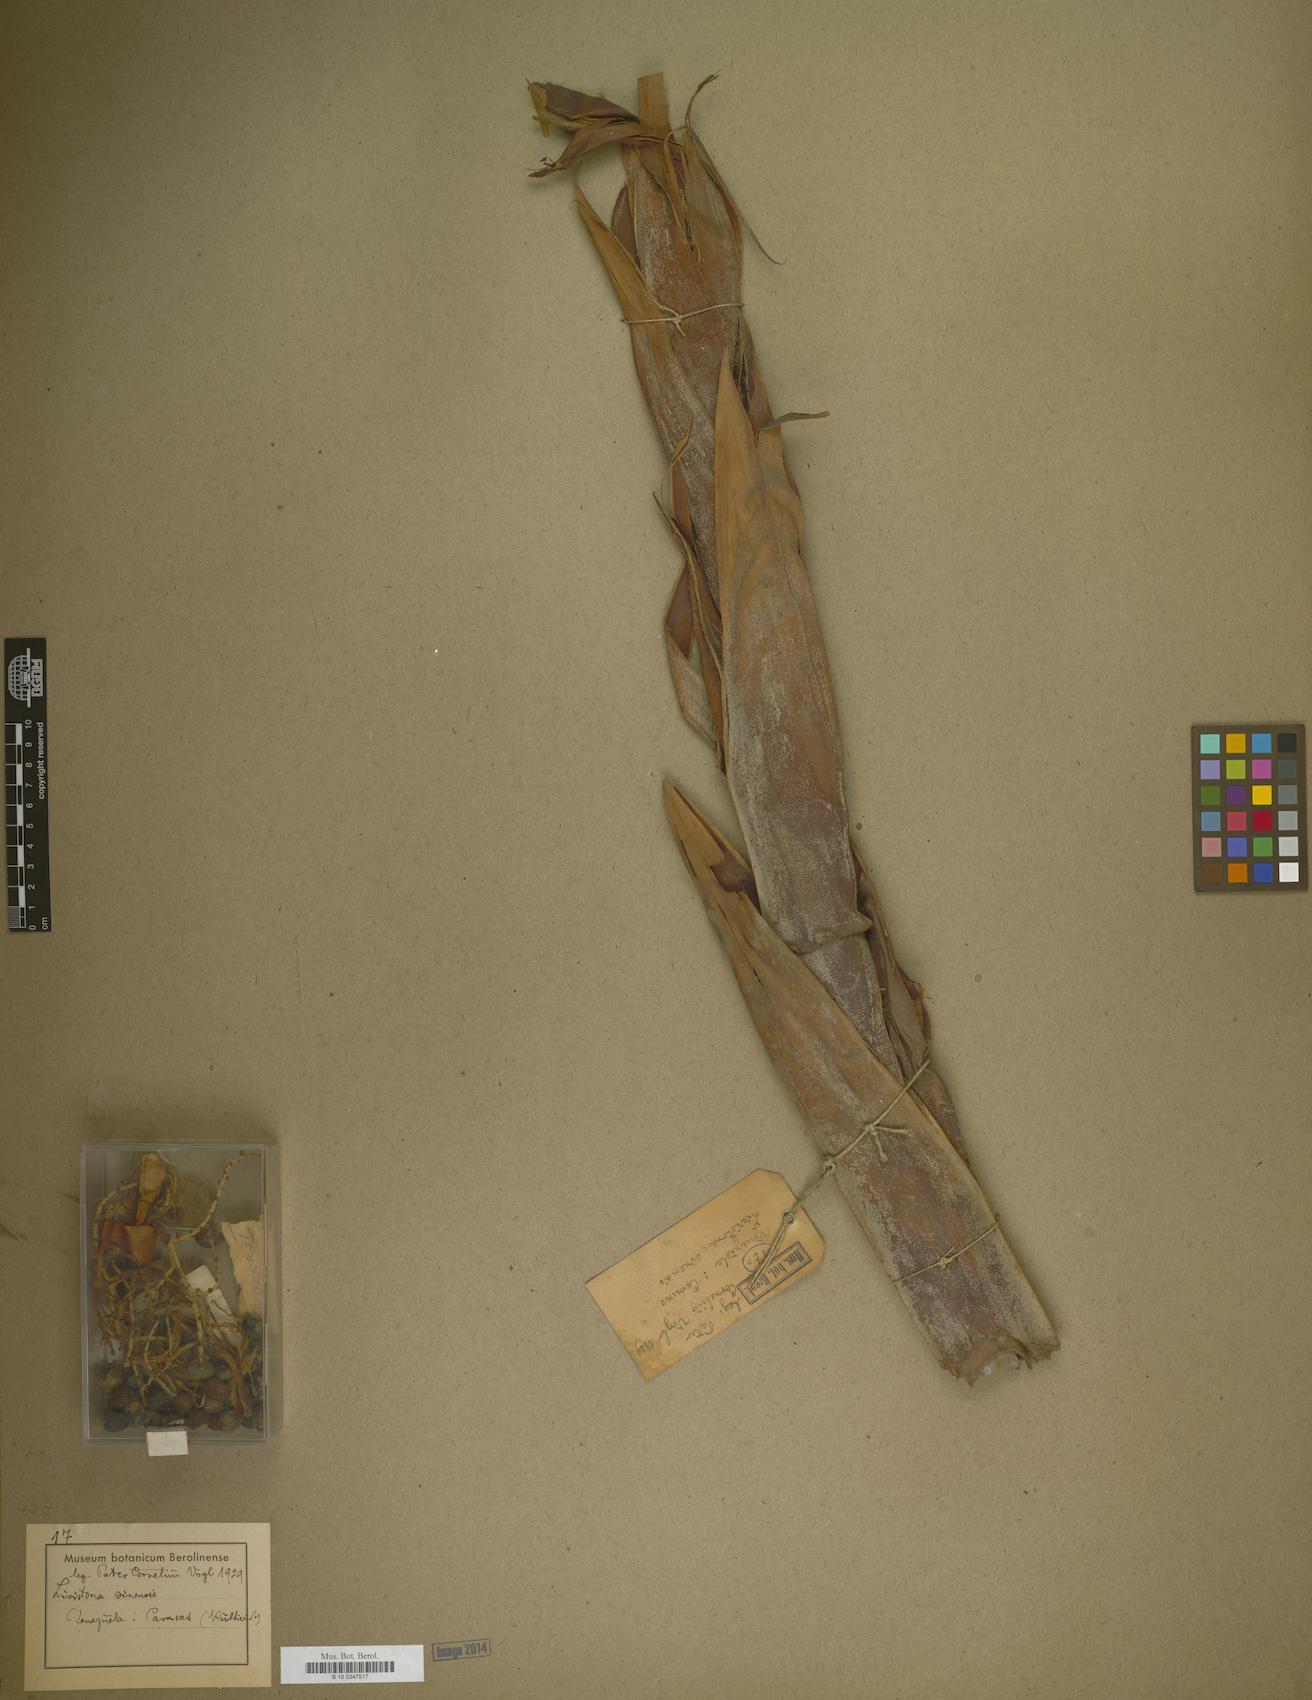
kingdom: Plantae
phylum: Tracheophyta
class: Liliopsida
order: Arecales
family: Arecaceae
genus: Livistona
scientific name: Livistona chinensis
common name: Fountain palm
